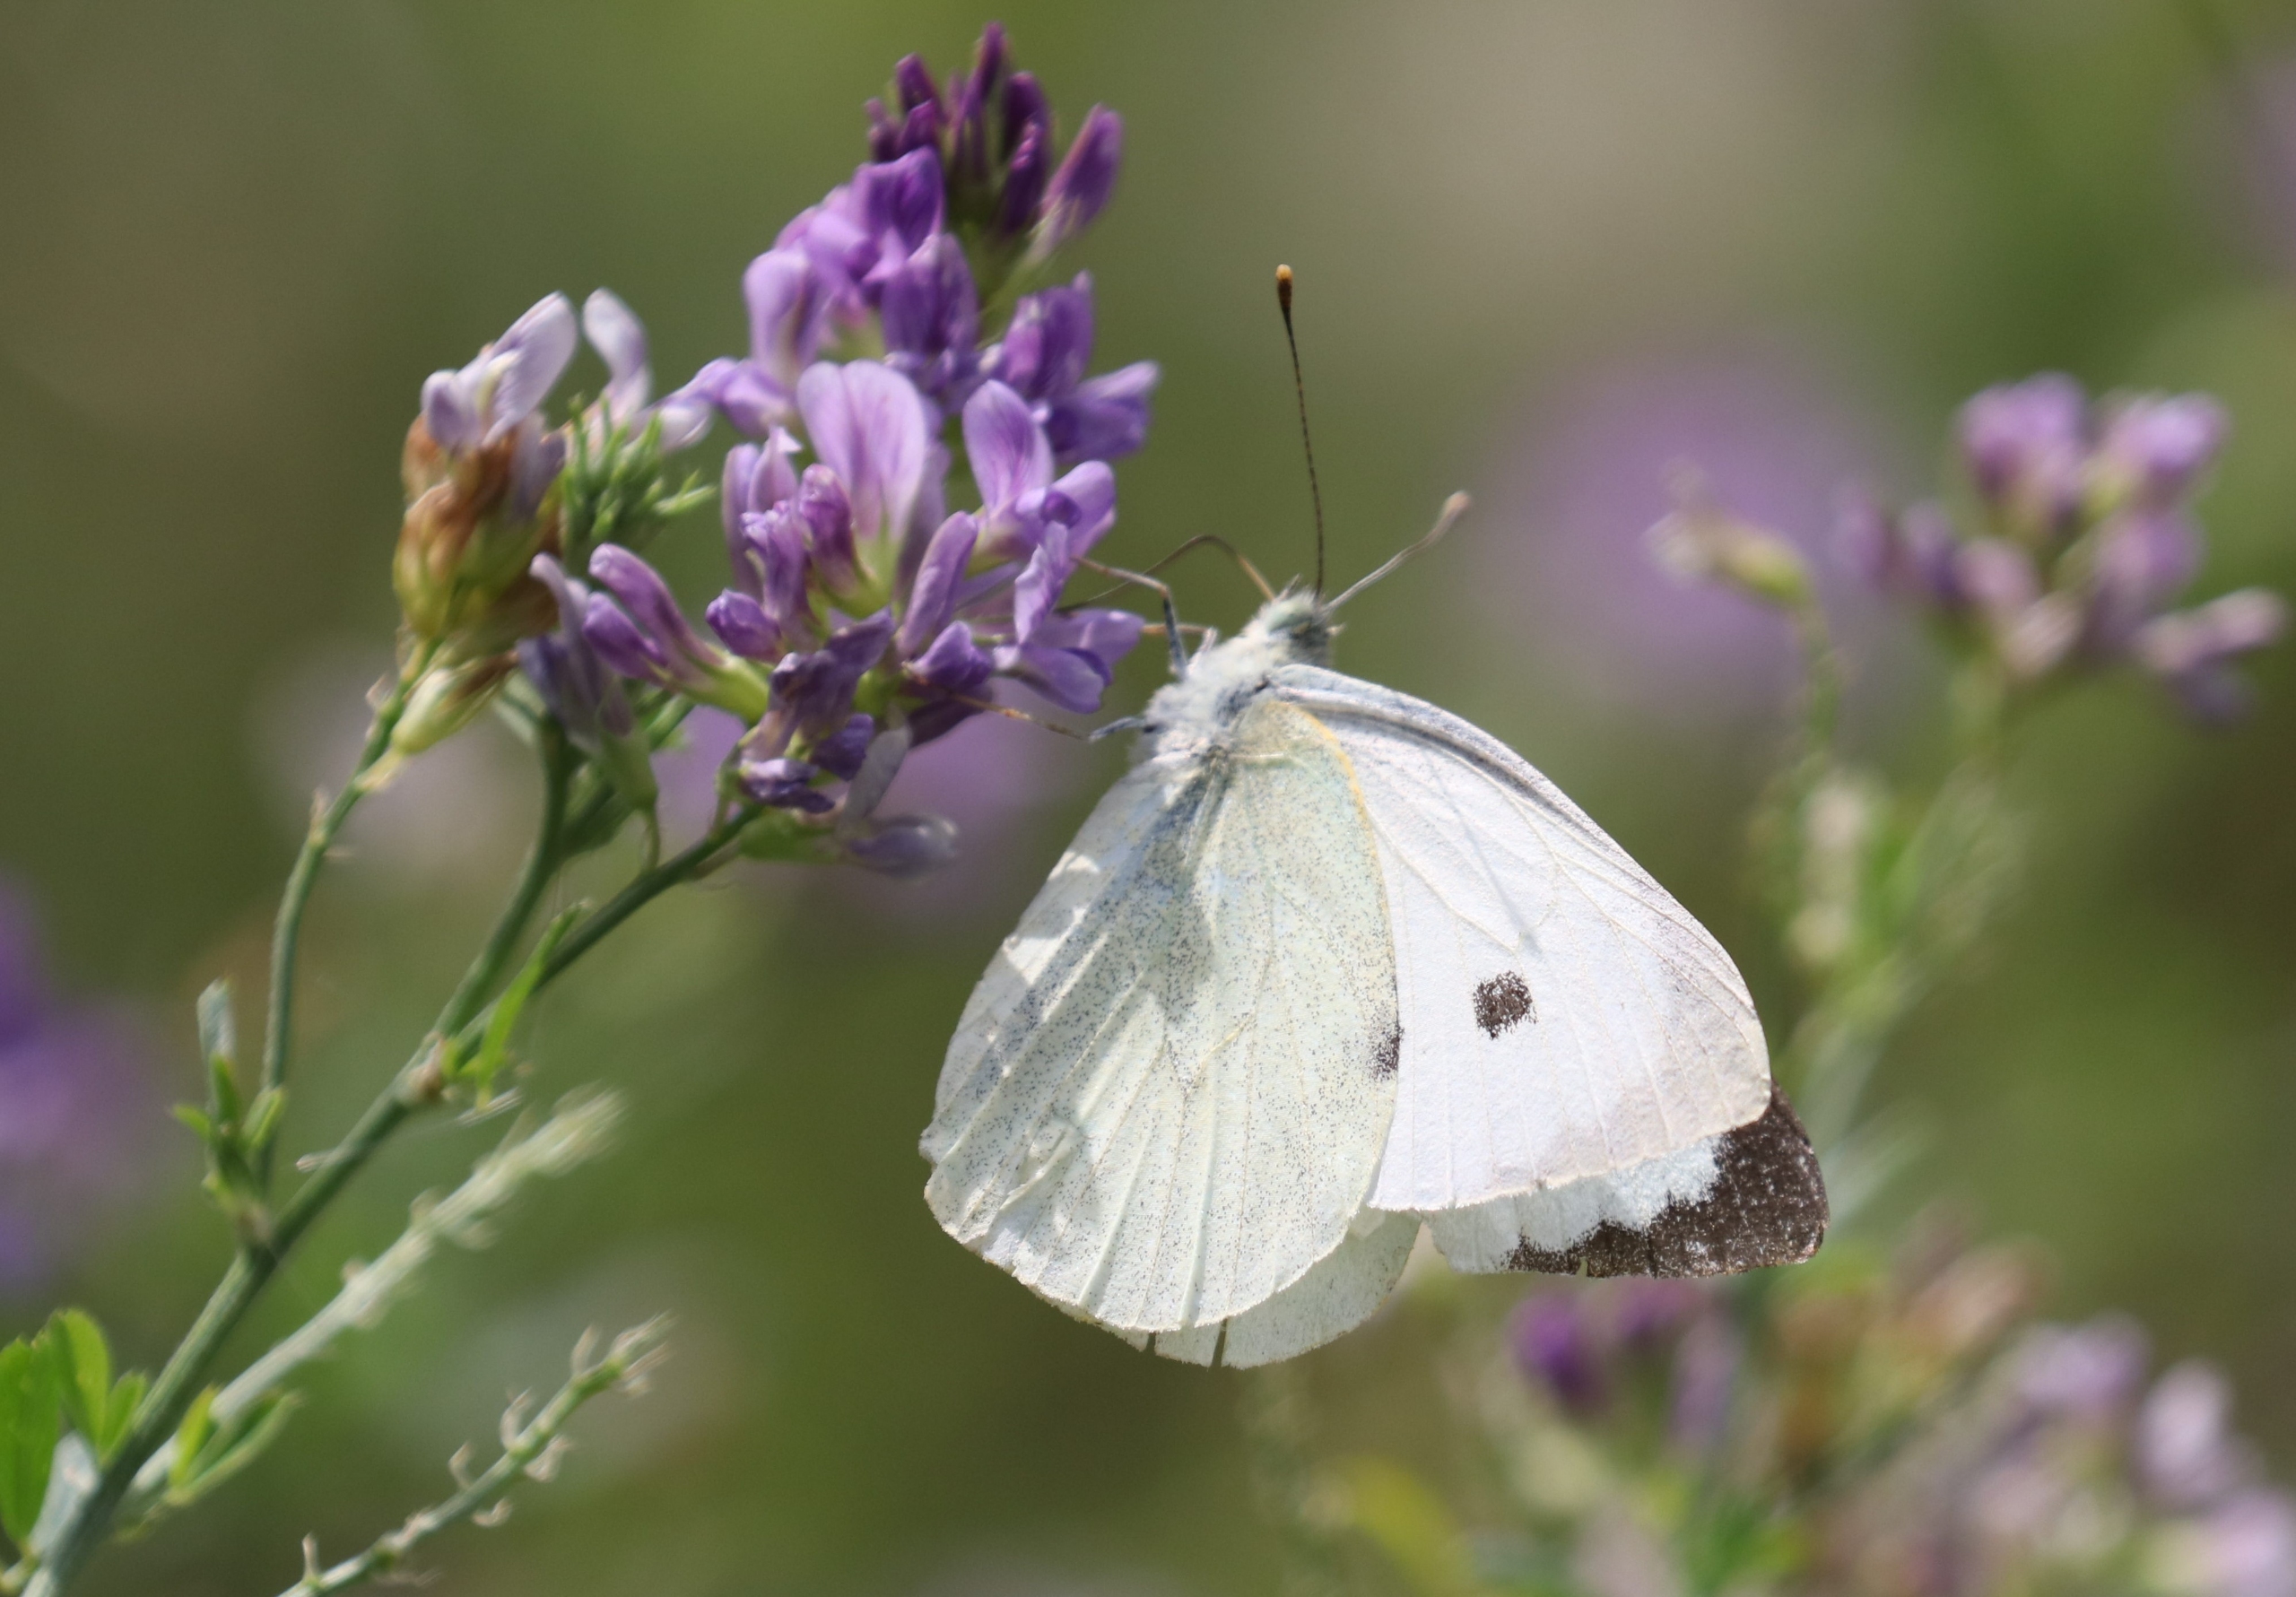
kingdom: Animalia
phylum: Arthropoda
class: Insecta
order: Lepidoptera
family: Pieridae
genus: Pieris
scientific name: Pieris brassicae
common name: Stor kålsommerfugl
